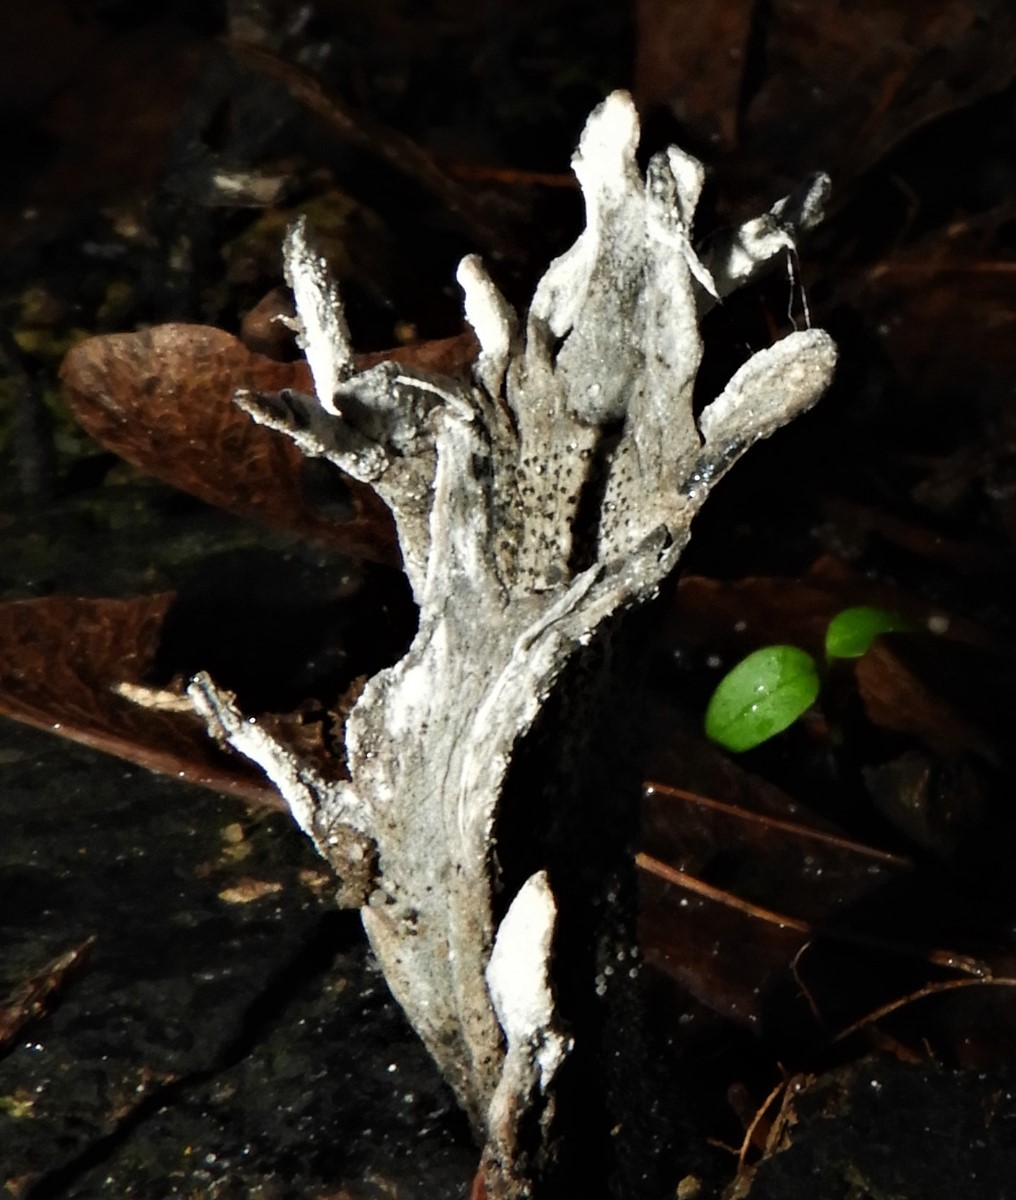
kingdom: Fungi
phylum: Ascomycota
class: Sordariomycetes
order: Xylariales
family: Xylariaceae
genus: Xylaria
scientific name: Xylaria hypoxylon
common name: grenet stødsvamp
